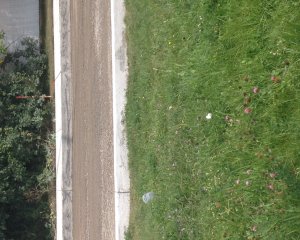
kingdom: Animalia
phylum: Arthropoda
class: Insecta
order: Lepidoptera
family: Pieridae
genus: Pieris
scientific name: Pieris rapae
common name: Cabbage White
